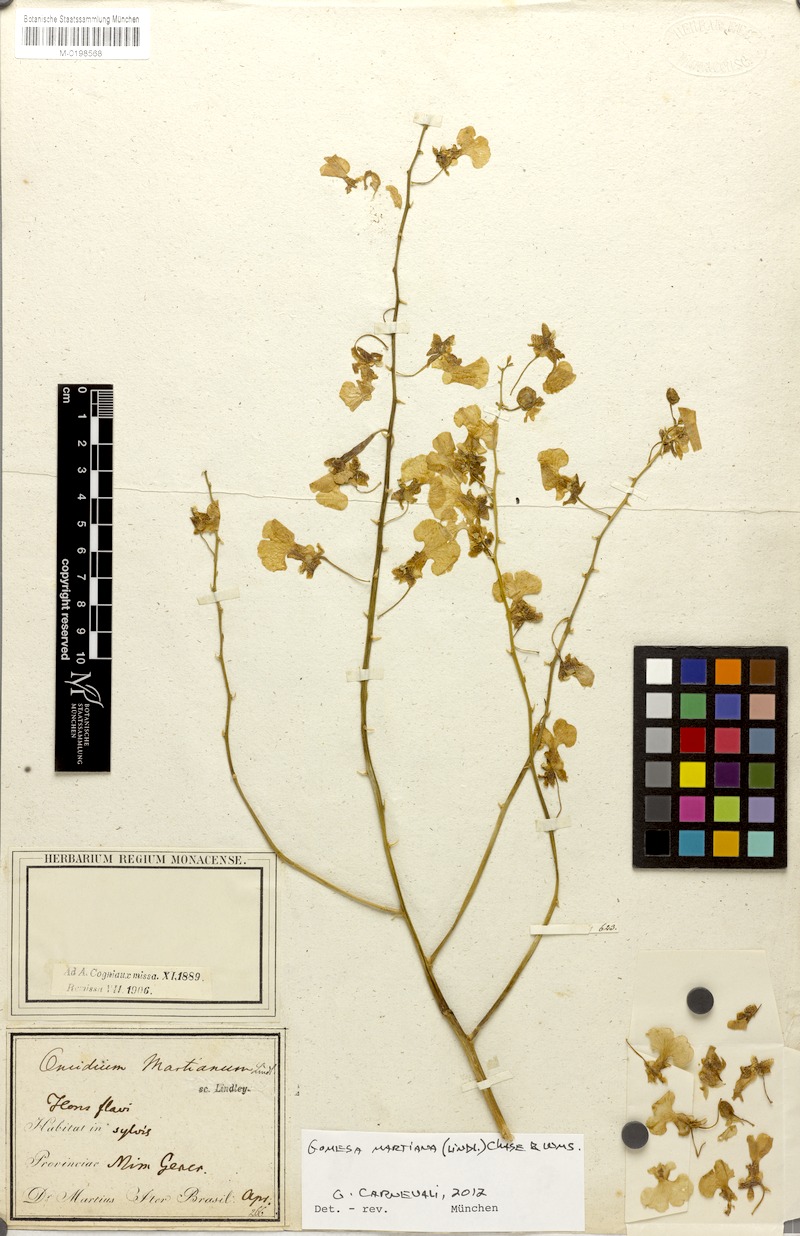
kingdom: Plantae
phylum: Tracheophyta
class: Liliopsida
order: Asparagales
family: Orchidaceae
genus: Gomesa
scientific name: Gomesa martiana
